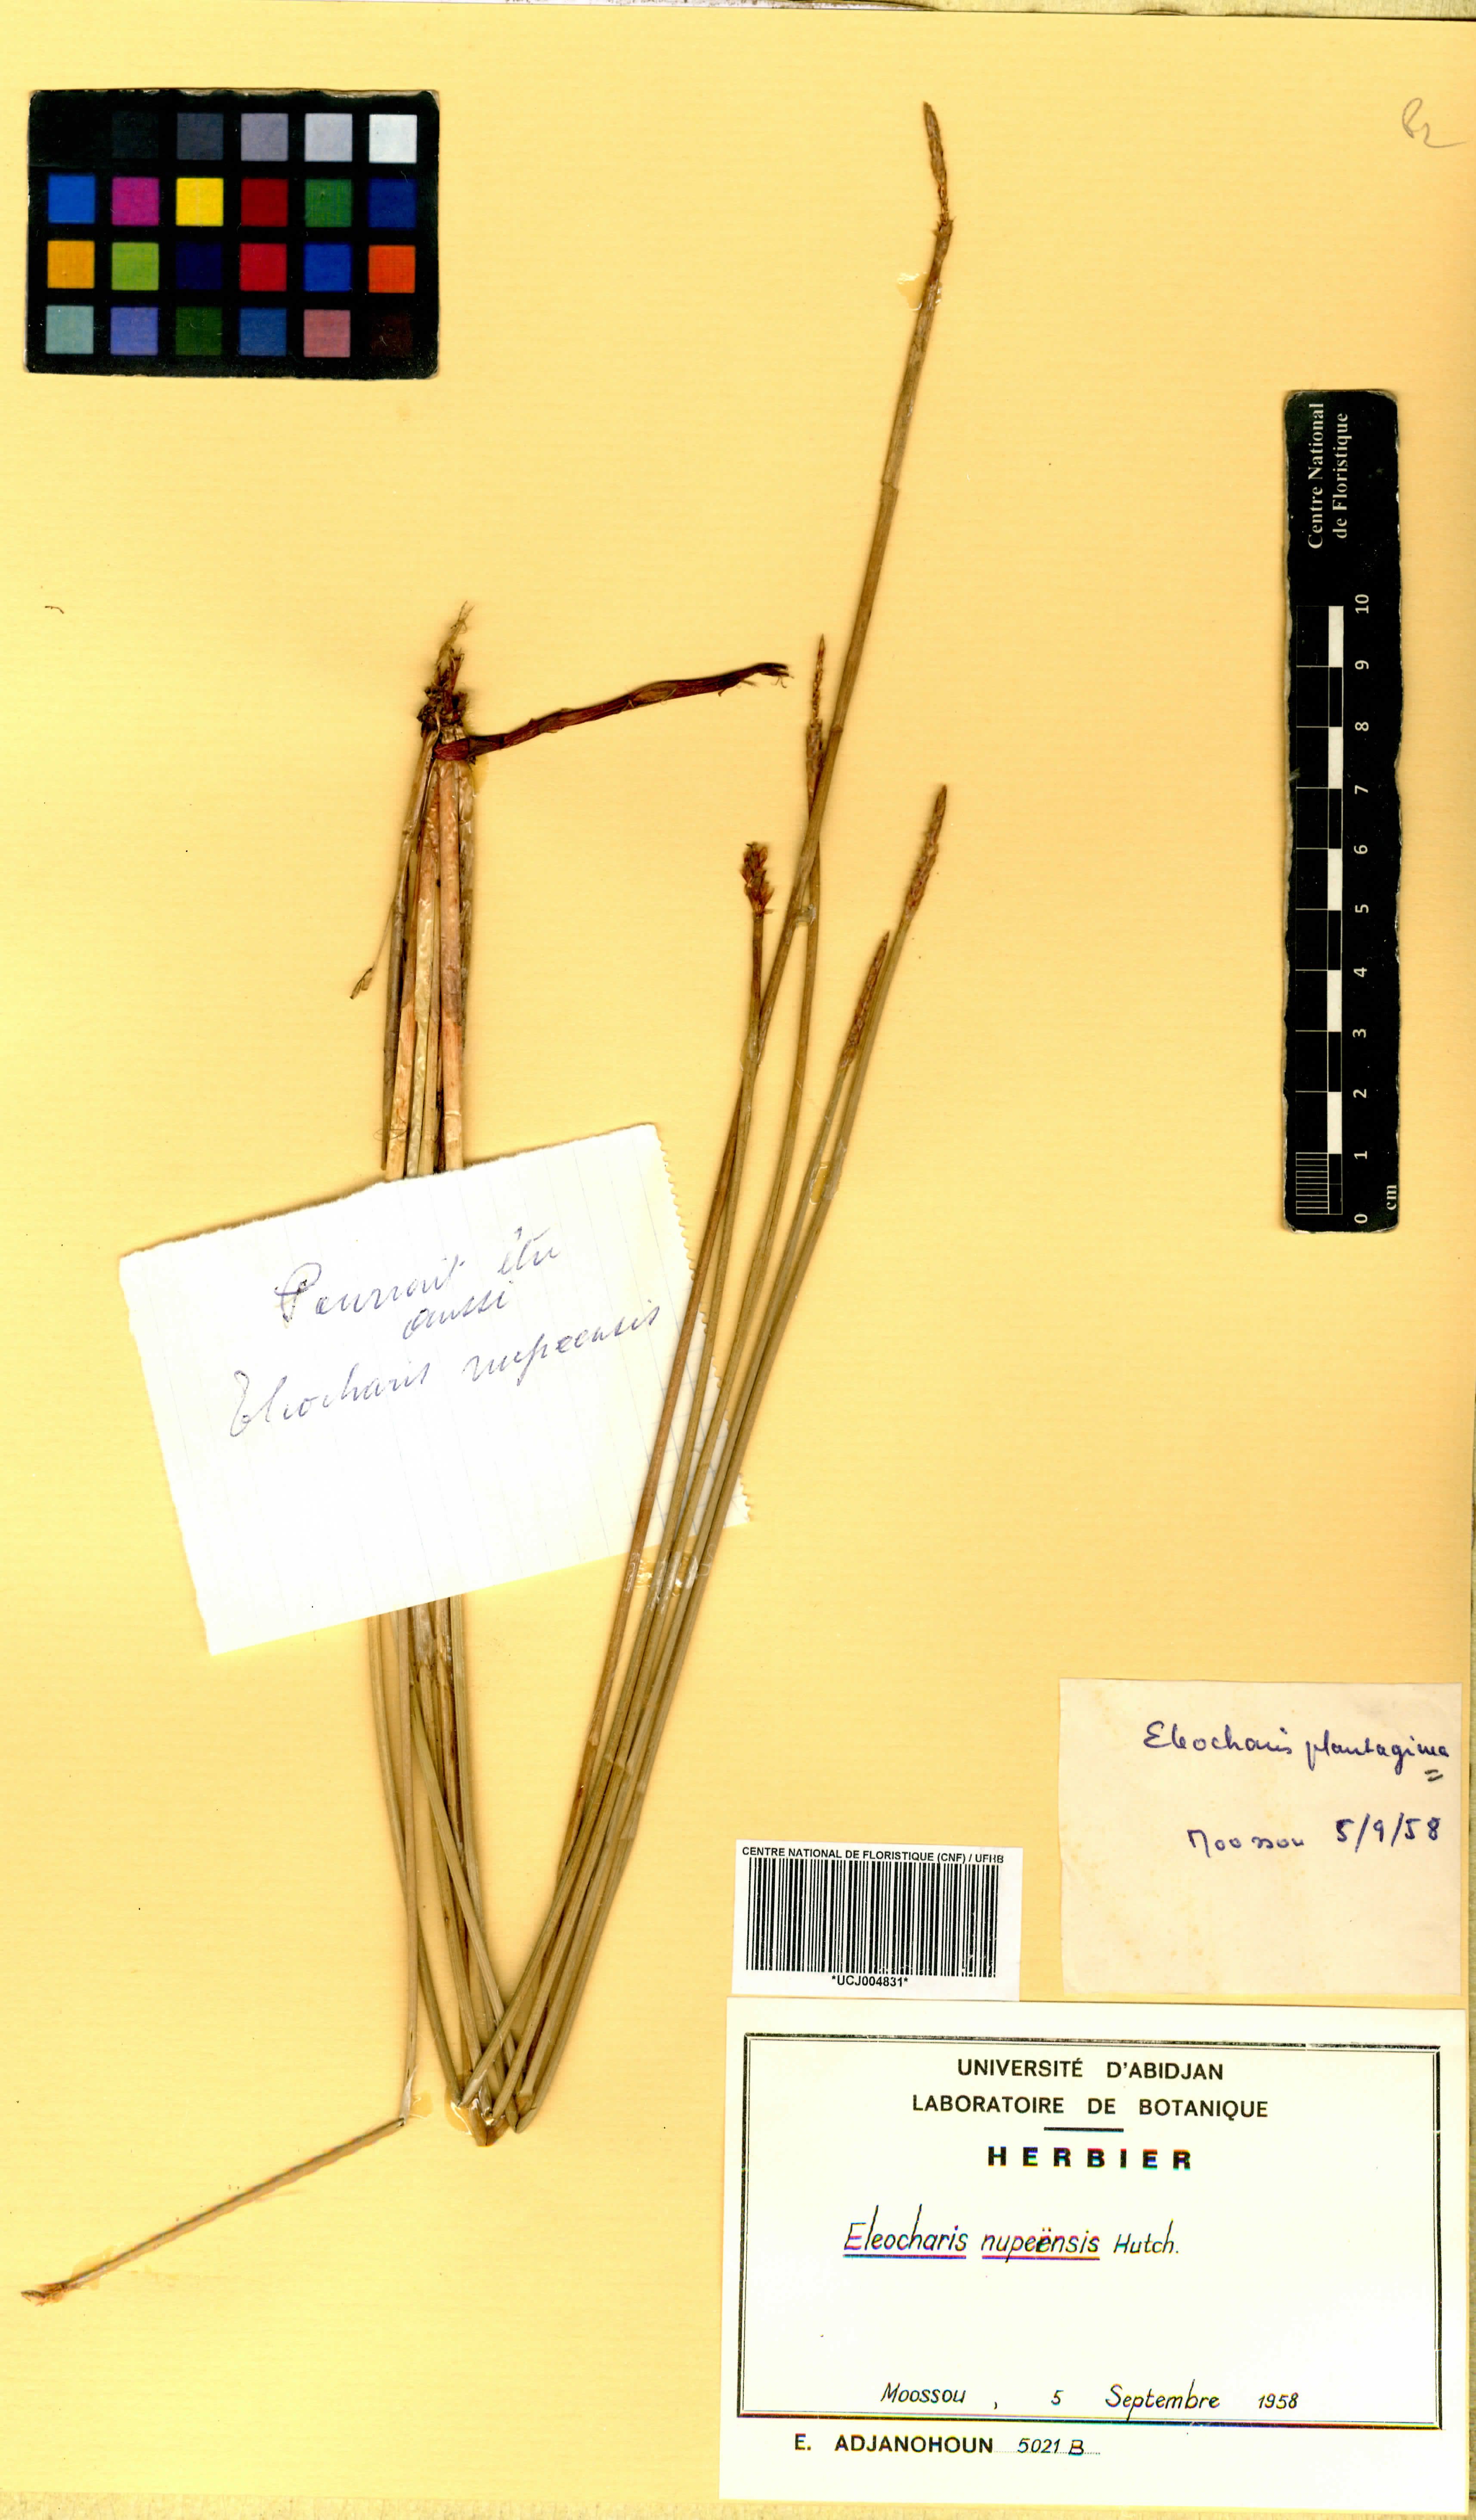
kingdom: Plantae
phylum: Tracheophyta
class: Liliopsida
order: Poales
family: Cyperaceae
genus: Eleocharis
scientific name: Eleocharis nupeensis
